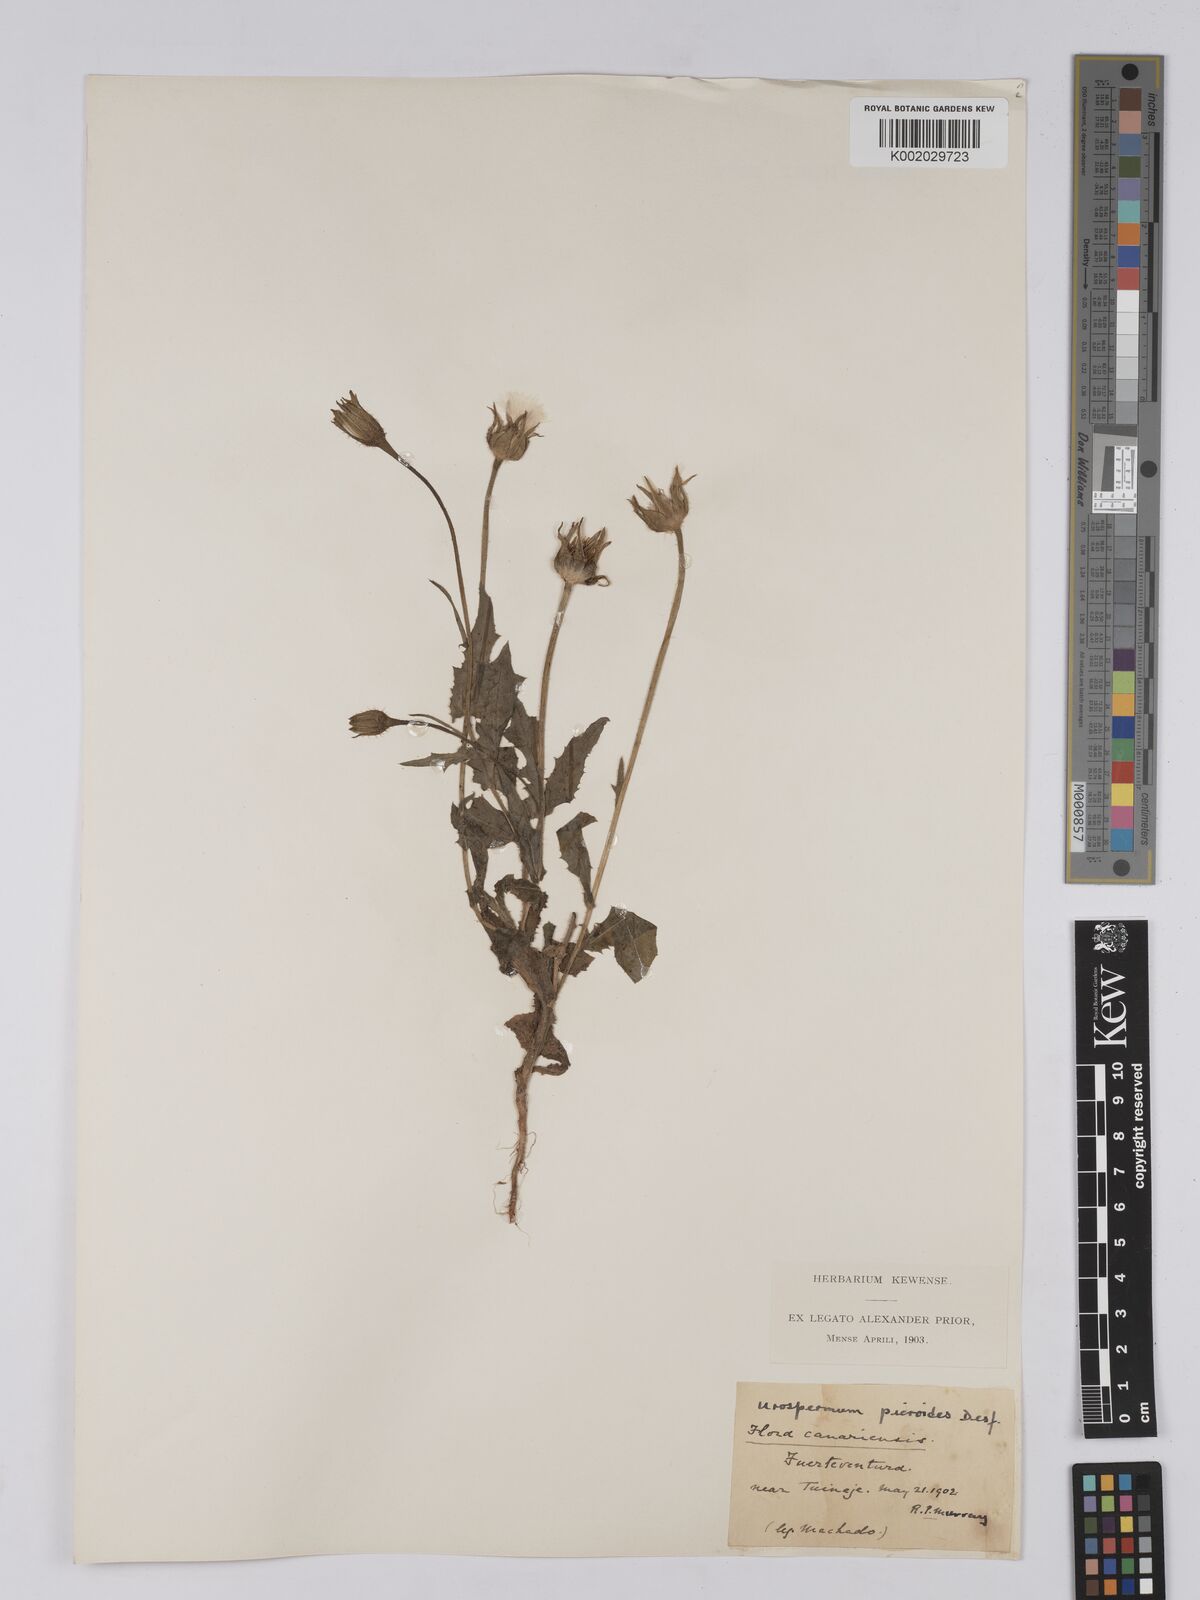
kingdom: Plantae
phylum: Tracheophyta
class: Magnoliopsida
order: Asterales
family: Asteraceae
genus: Urospermum
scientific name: Urospermum picroides
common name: False hawkbit
